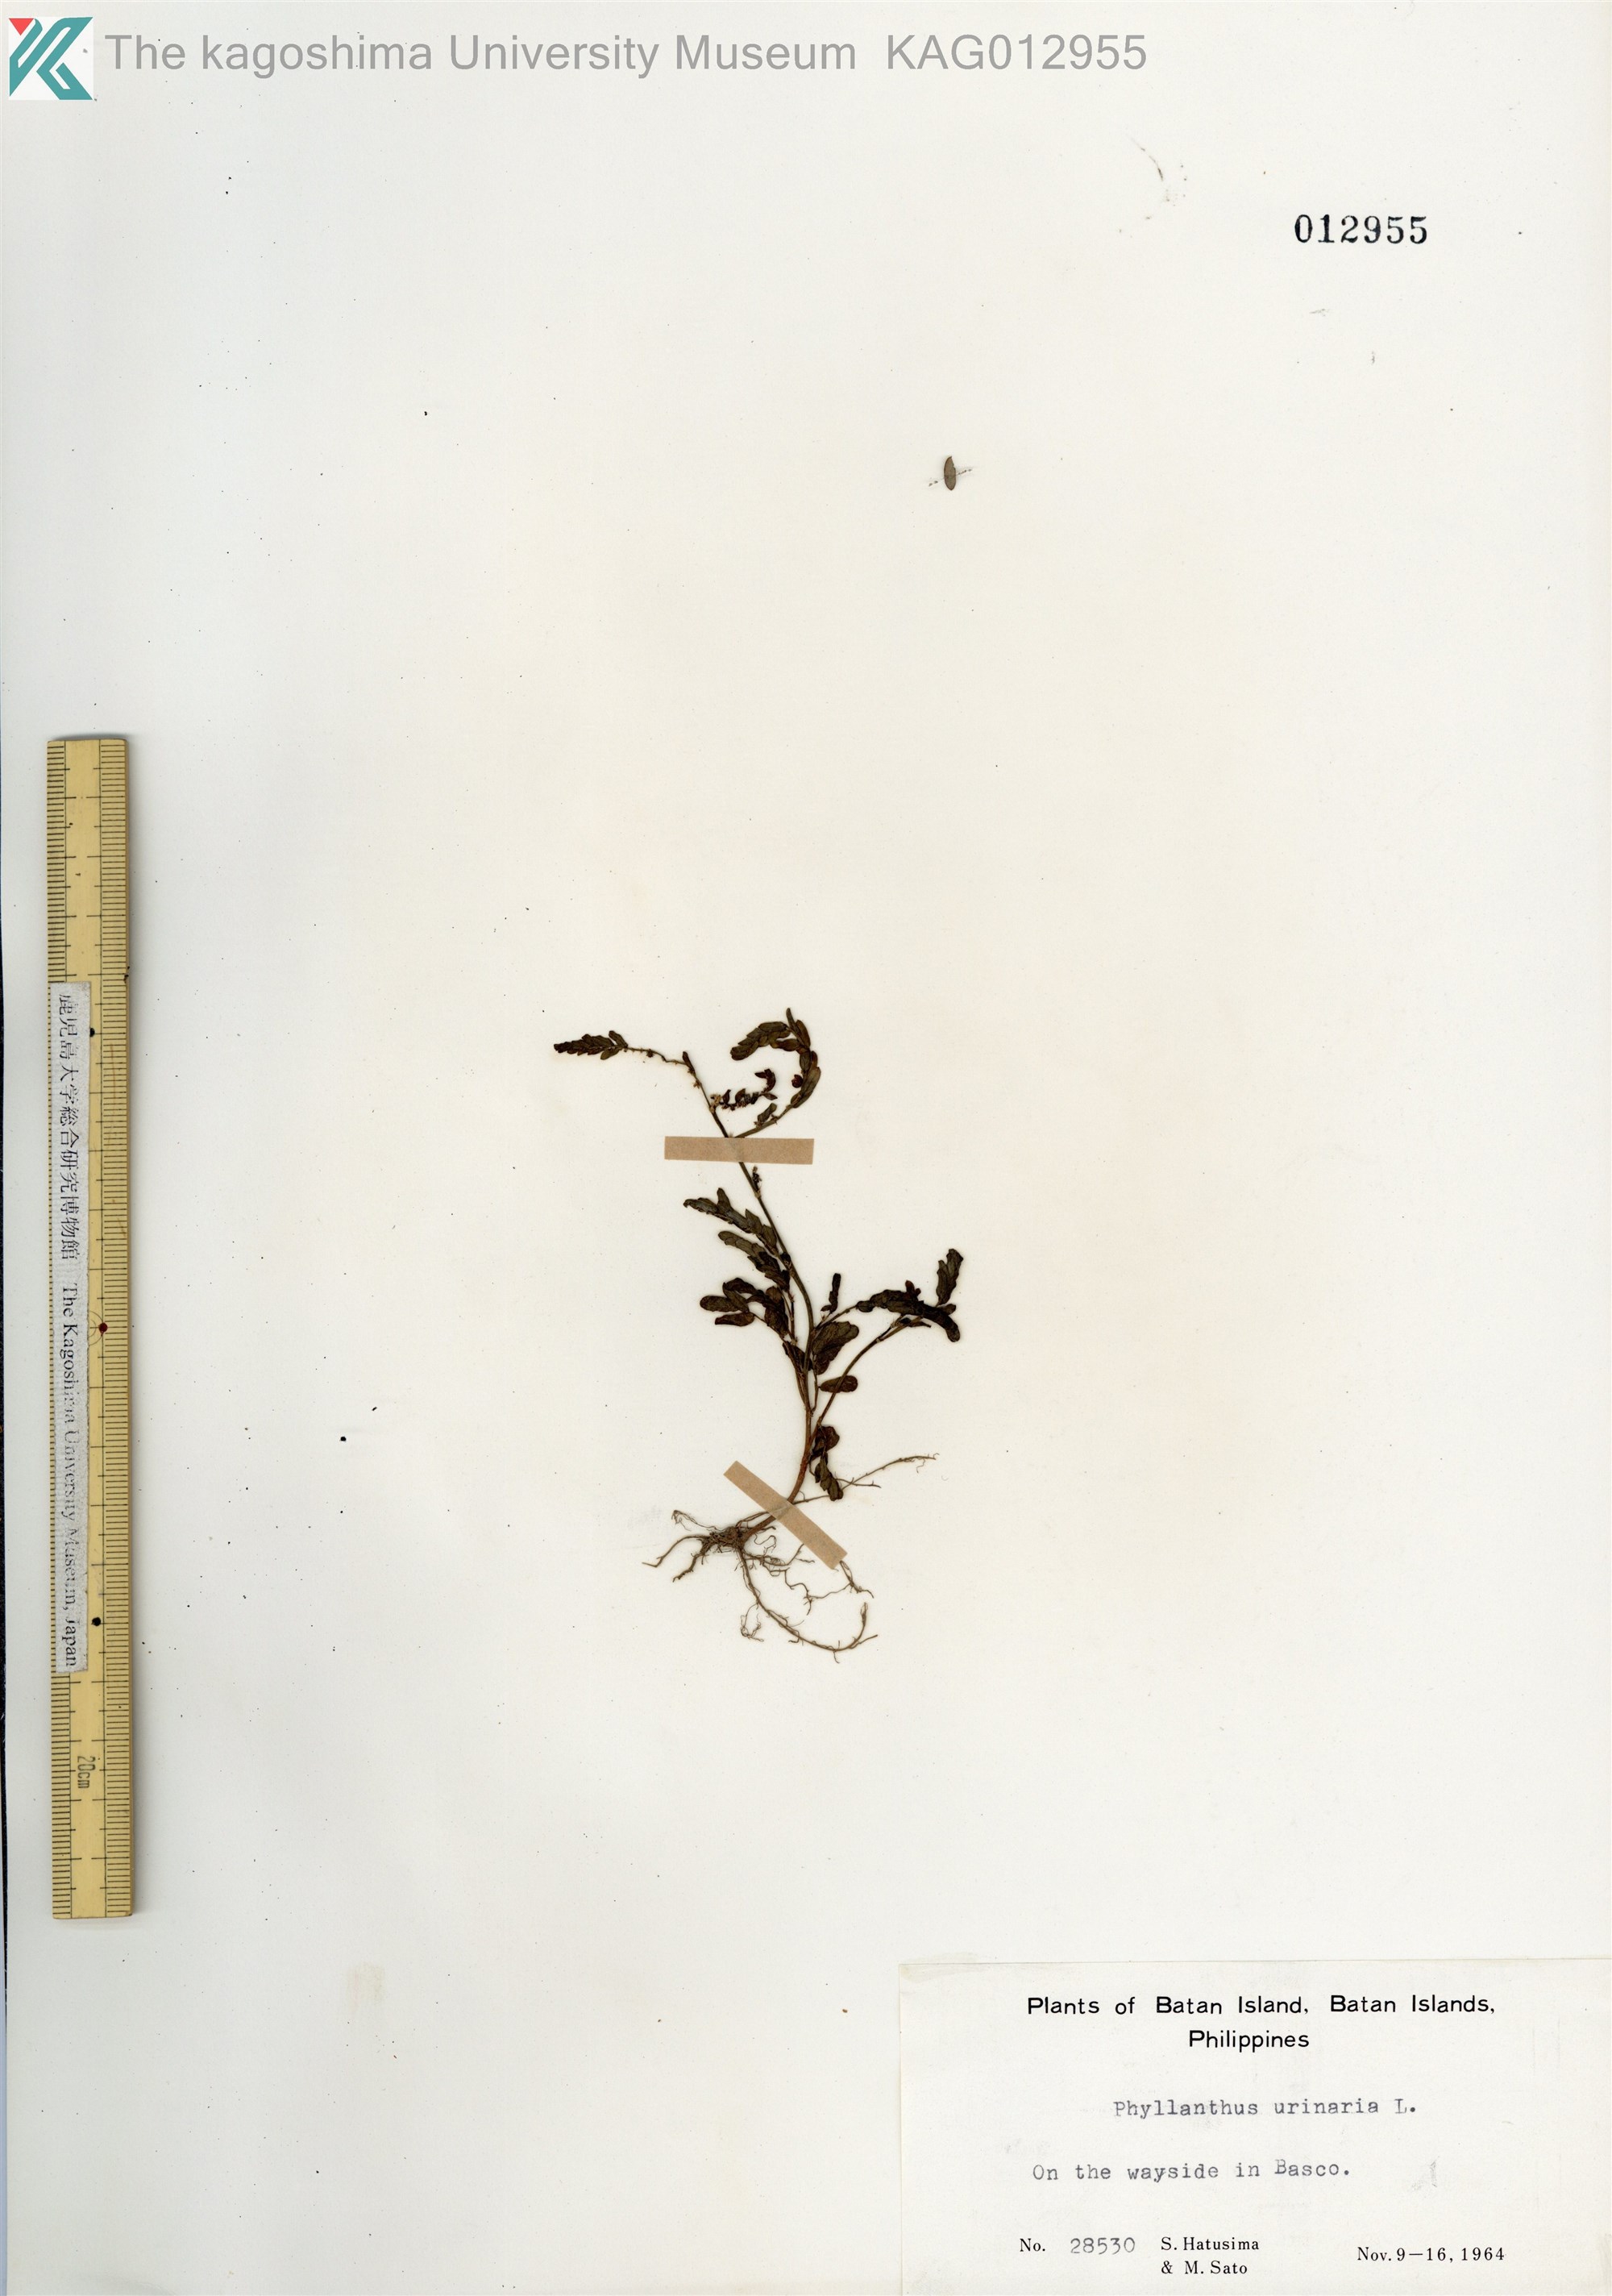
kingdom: Plantae
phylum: Tracheophyta
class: Magnoliopsida
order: Malpighiales
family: Phyllanthaceae
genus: Phyllanthus
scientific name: Phyllanthus urinaria
